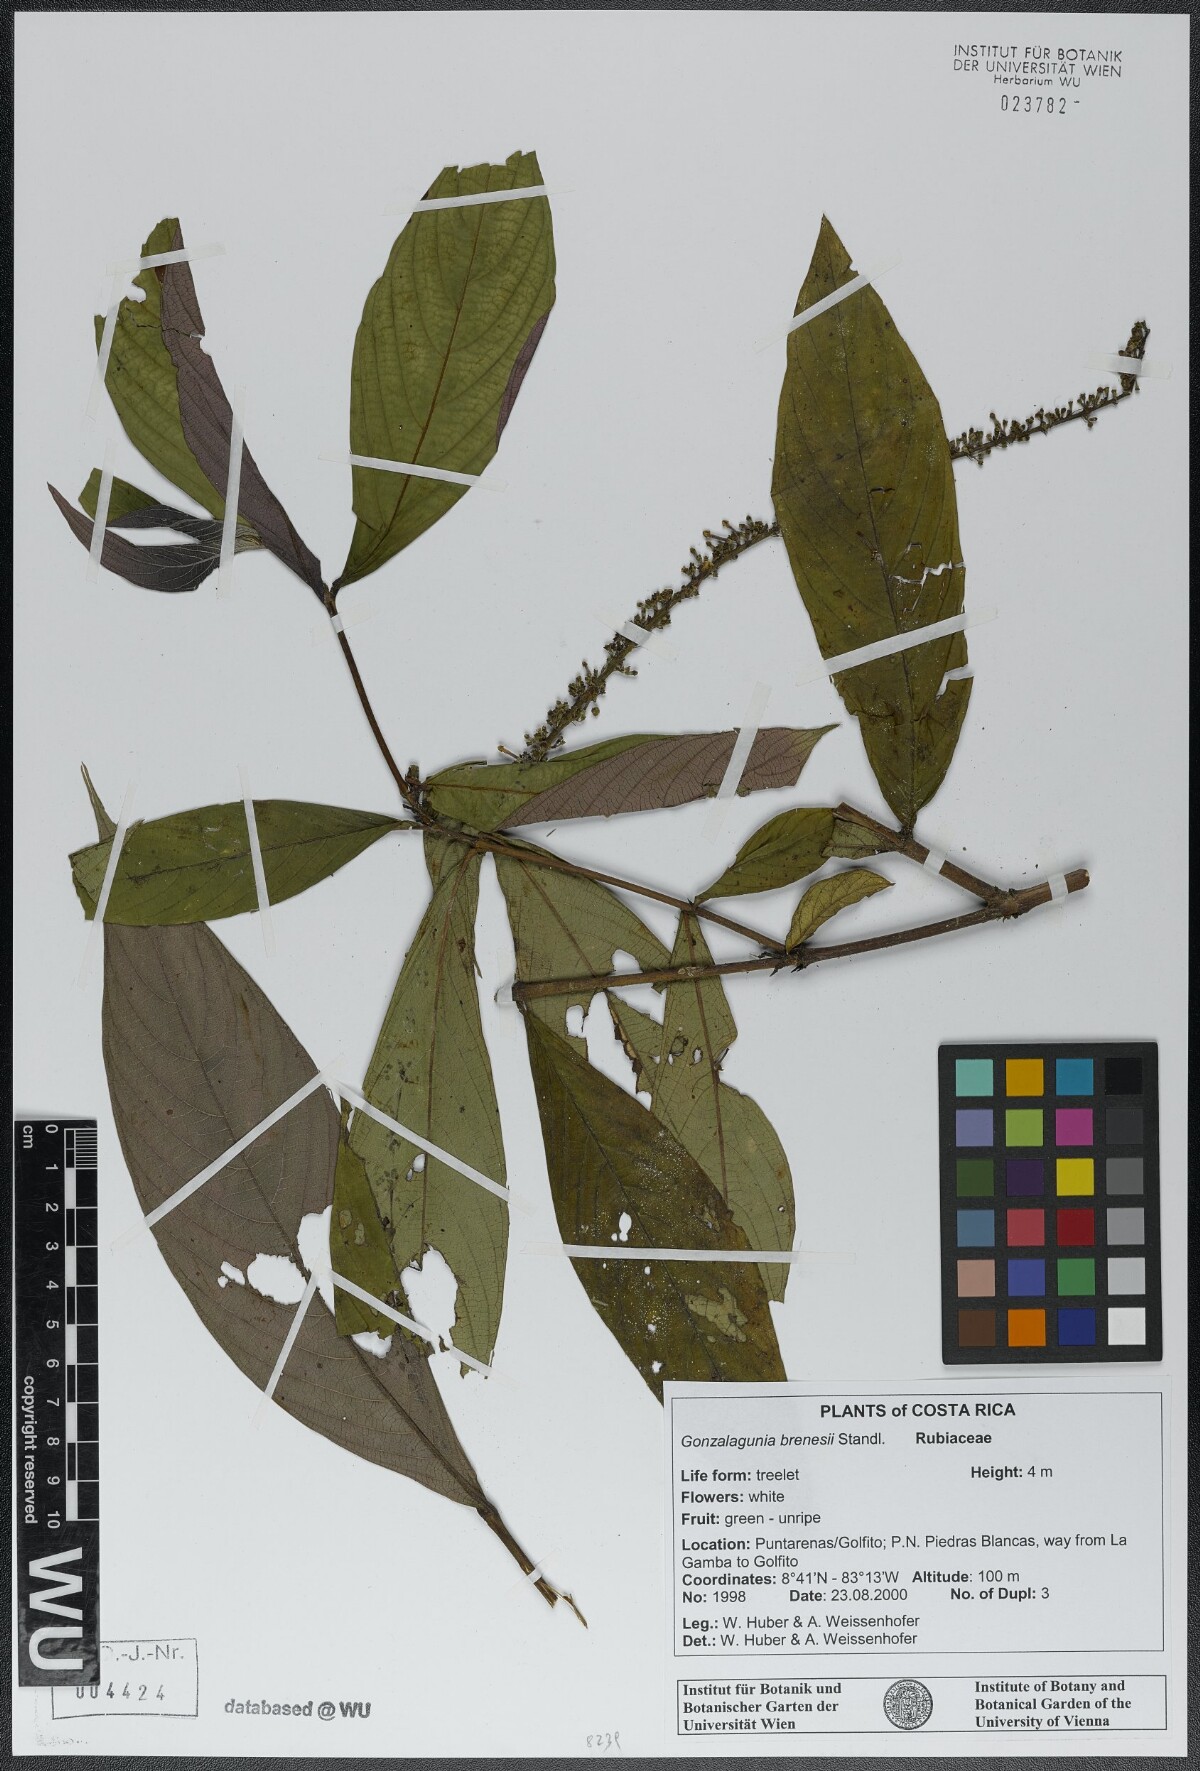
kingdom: Plantae
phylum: Tracheophyta
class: Magnoliopsida
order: Gentianales
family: Rubiaceae
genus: Gonzalagunia
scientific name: Gonzalagunia brenesii
